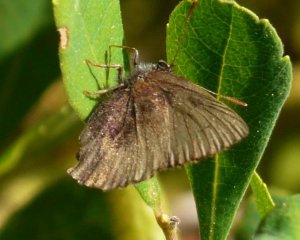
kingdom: Animalia
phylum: Arthropoda
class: Insecta
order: Lepidoptera
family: Lycaenidae
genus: Incisalia
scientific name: Incisalia irioides
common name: Brown Elfin
